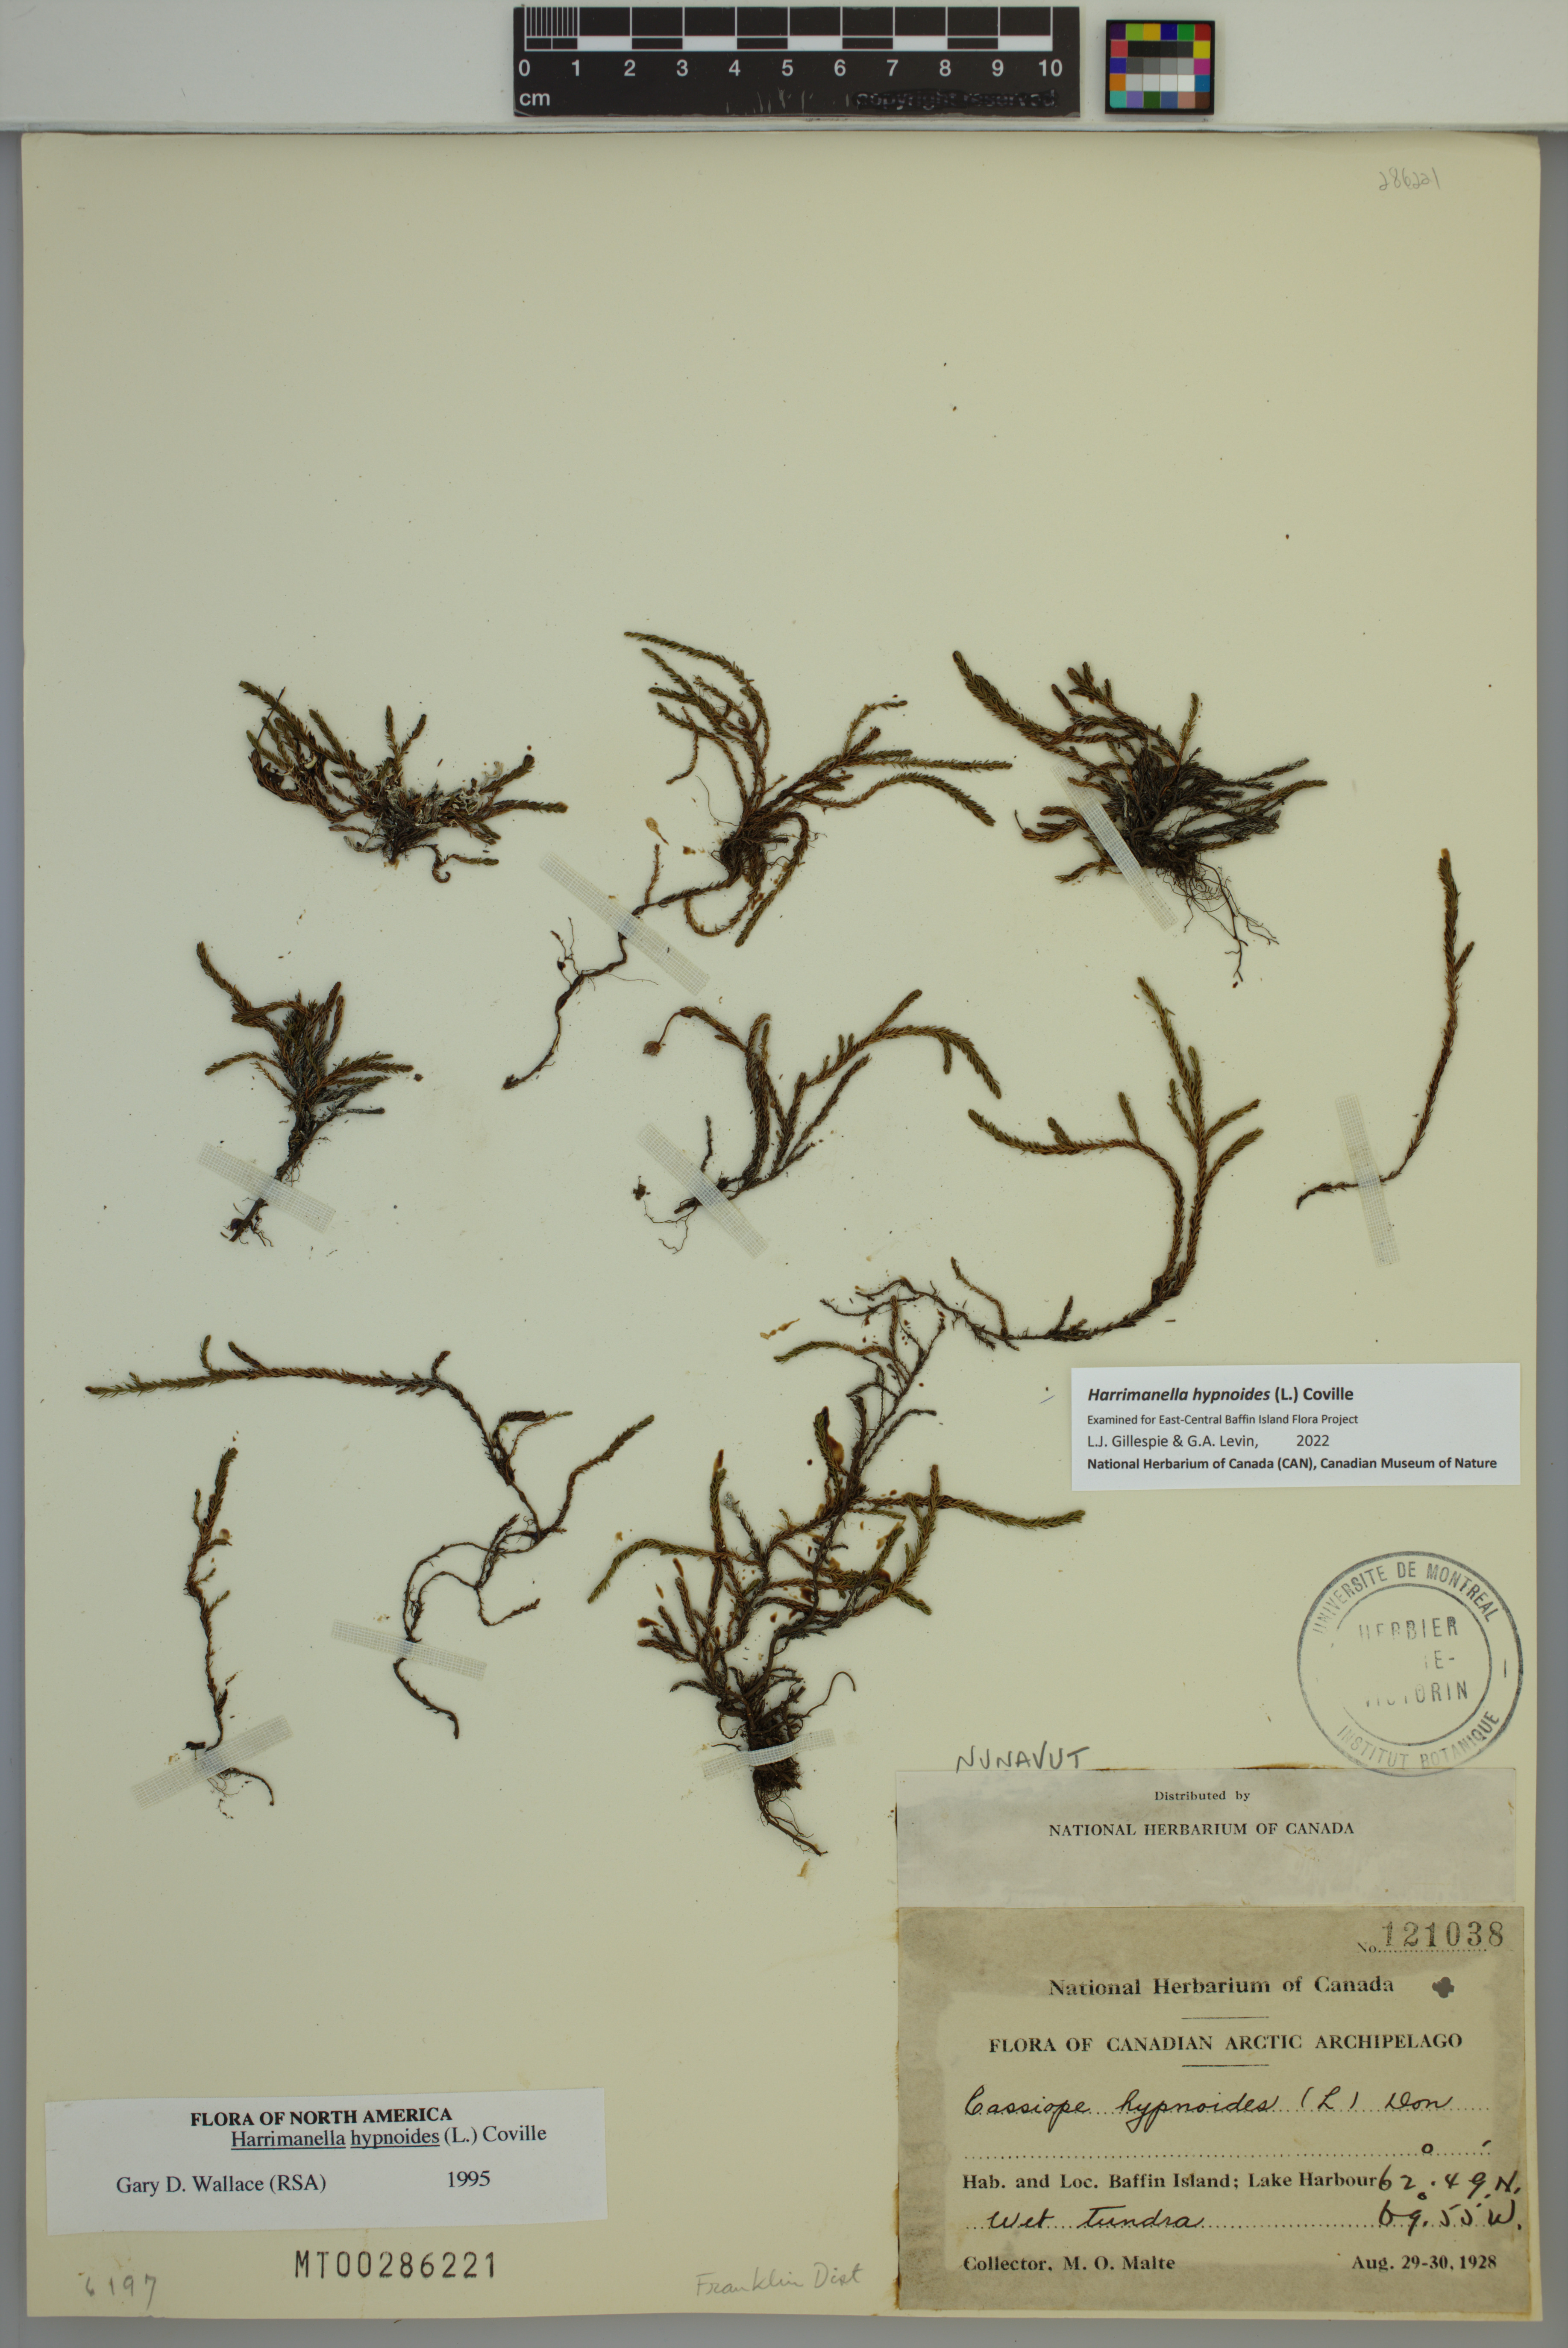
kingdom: Plantae
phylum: Tracheophyta
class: Magnoliopsida
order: Ericales
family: Ericaceae
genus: Harrimanella
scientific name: Harrimanella hypnoides
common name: Moss bell heather
